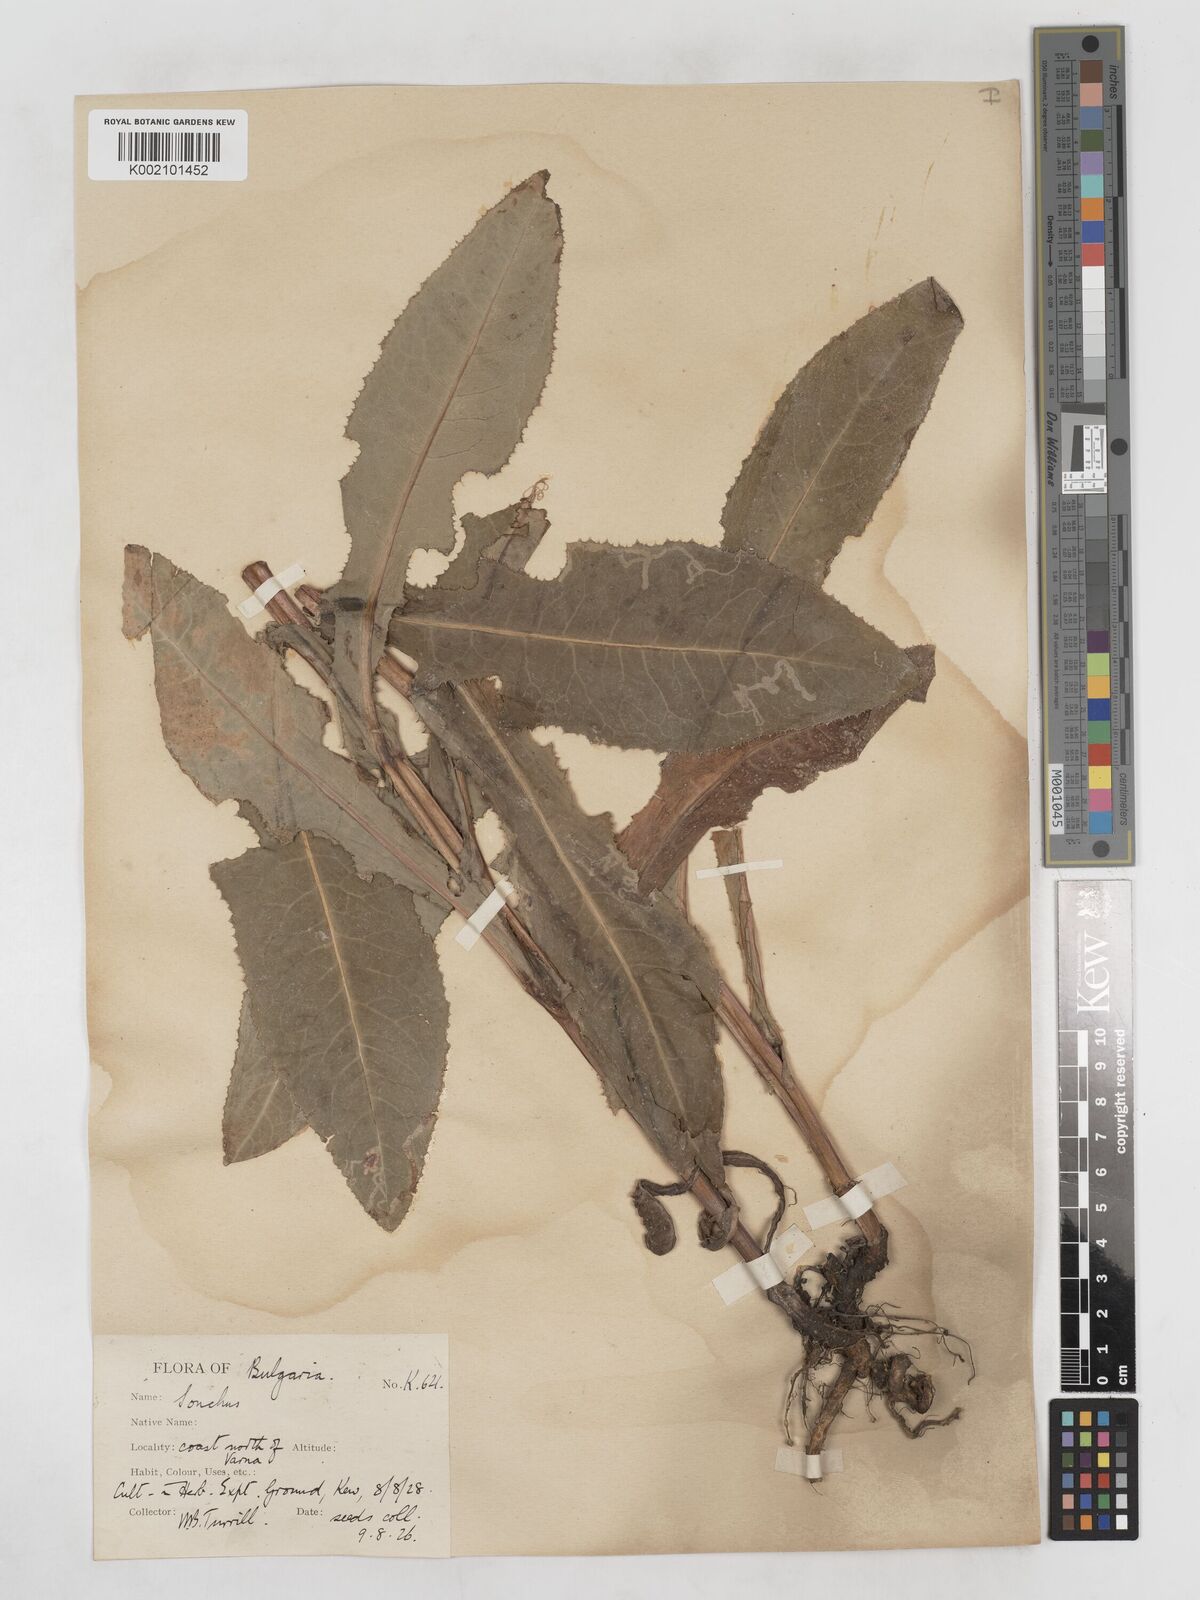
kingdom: Plantae
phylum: Tracheophyta
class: Magnoliopsida
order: Asterales
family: Asteraceae
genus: Sonchus
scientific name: Sonchus arvensis
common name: Perennial sow-thistle
